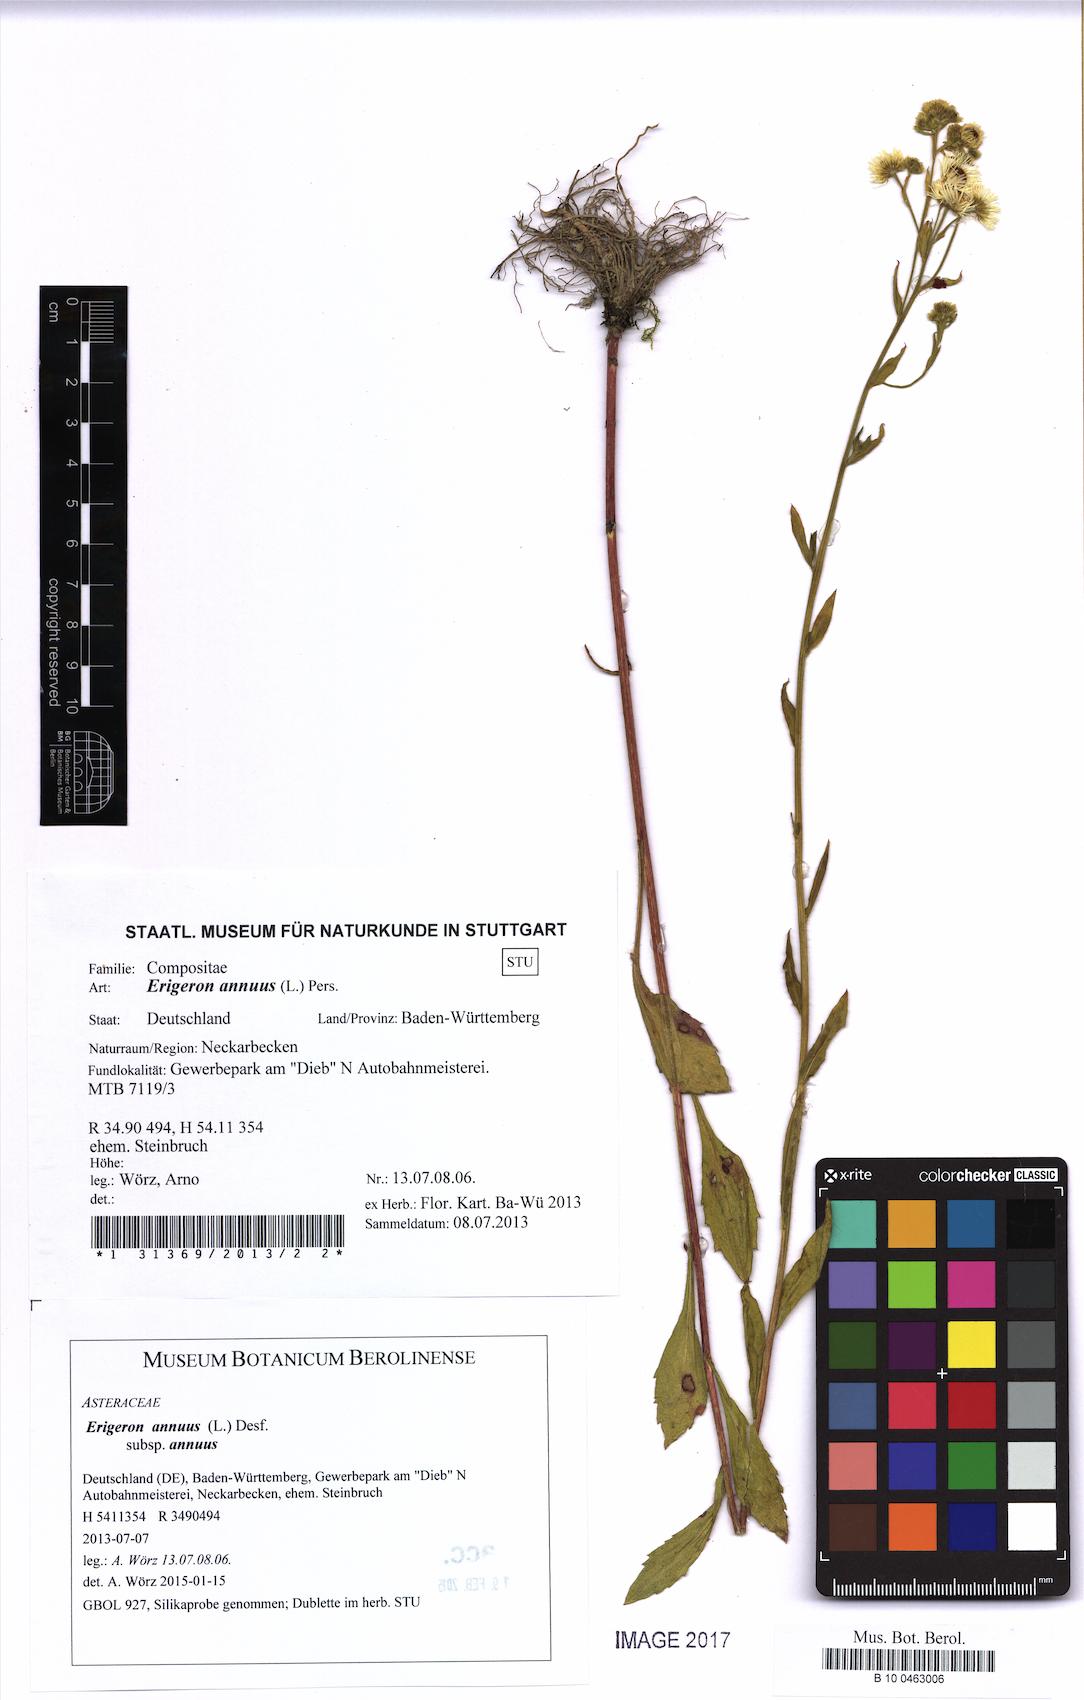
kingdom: Plantae
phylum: Tracheophyta
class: Magnoliopsida
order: Asterales
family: Asteraceae
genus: Erigeron
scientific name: Erigeron annuus
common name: Tall fleabane
